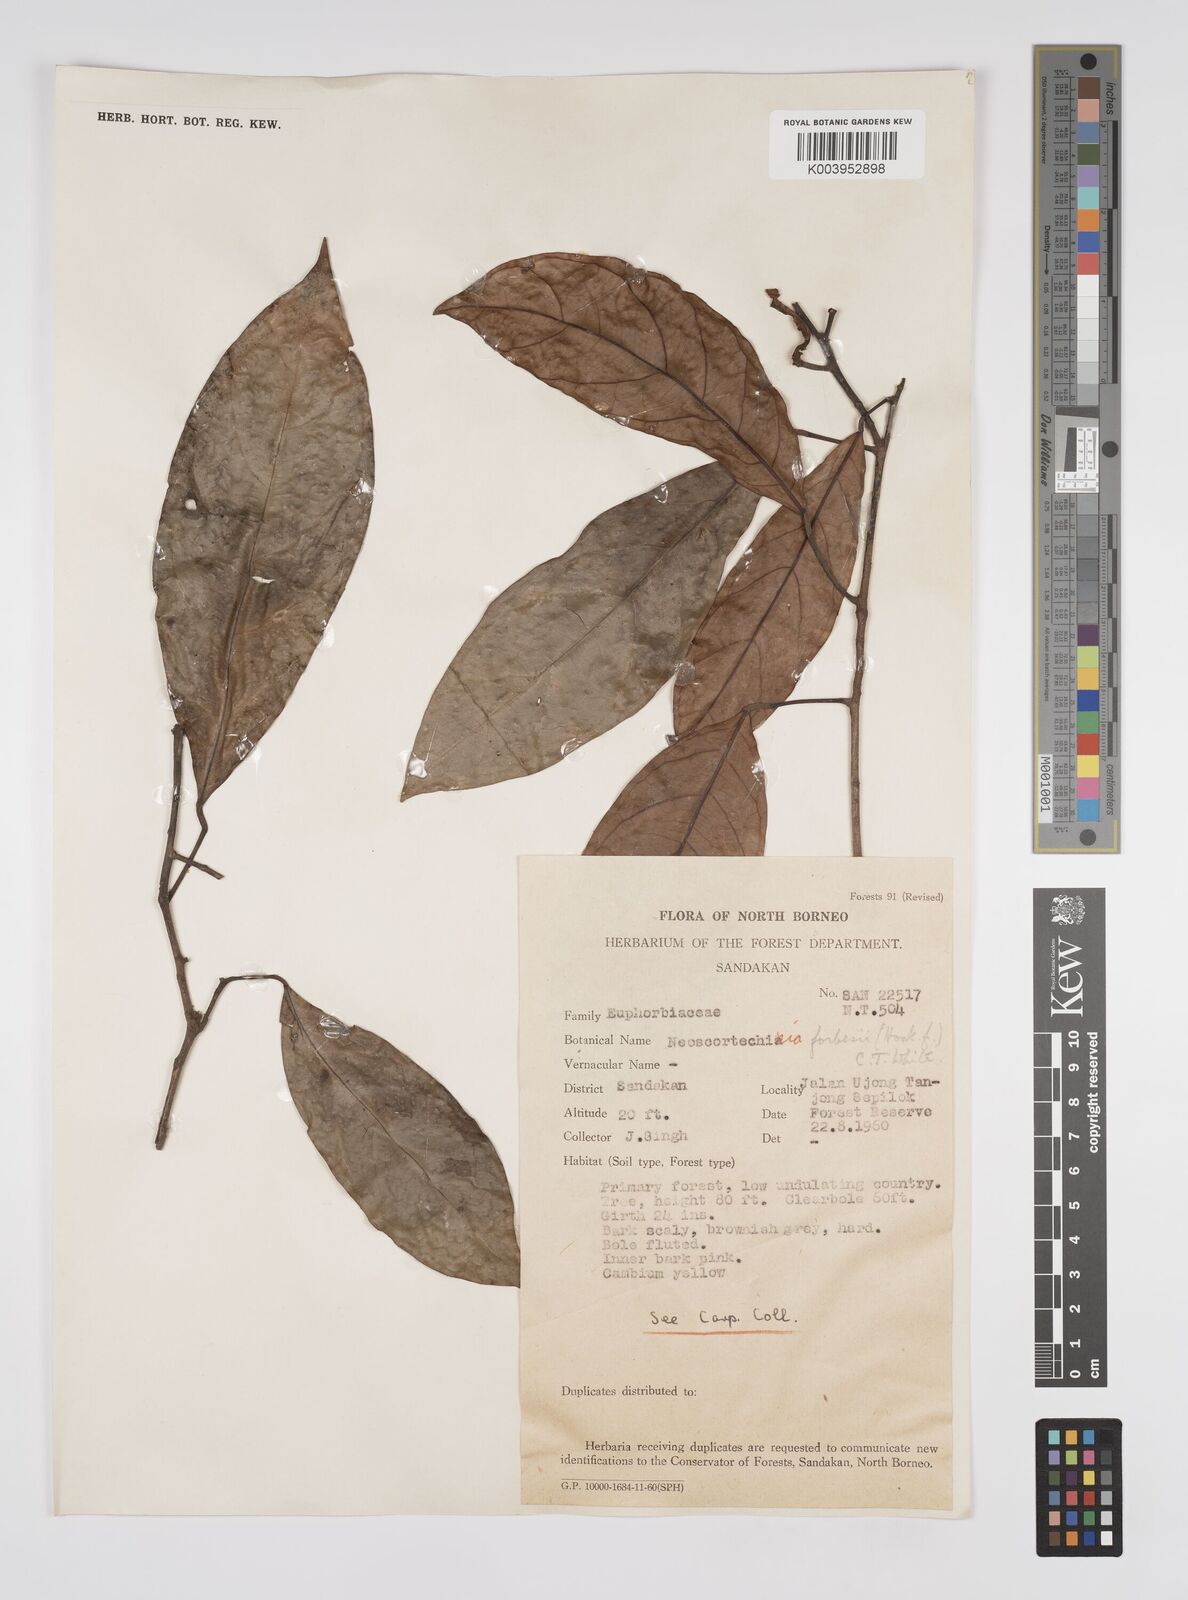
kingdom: Plantae
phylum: Tracheophyta
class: Magnoliopsida
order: Malpighiales
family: Euphorbiaceae
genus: Neoscortechinia
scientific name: Neoscortechinia philippinensis
